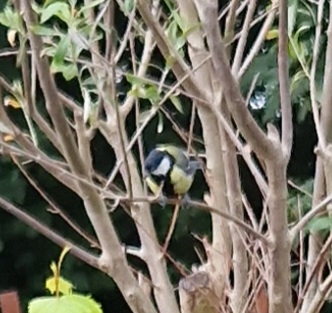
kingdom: Animalia
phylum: Chordata
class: Aves
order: Passeriformes
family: Paridae
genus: Parus
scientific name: Parus major
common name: Musvit
